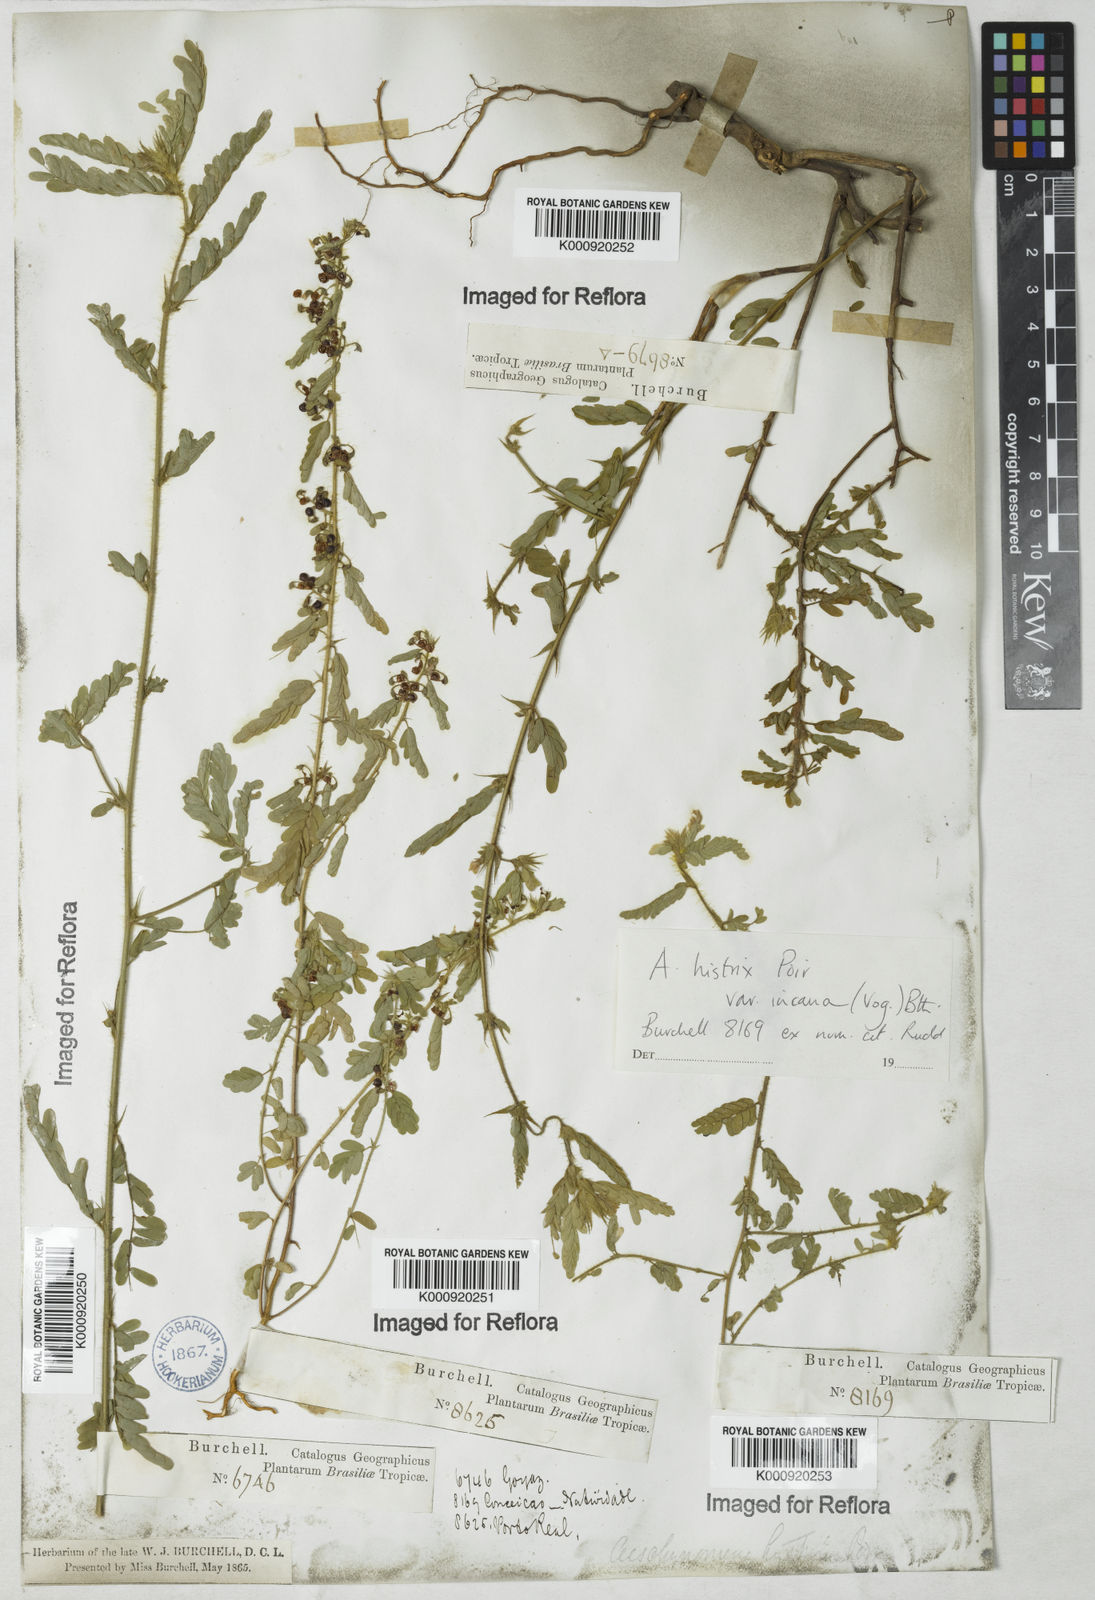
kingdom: Plantae
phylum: Tracheophyta
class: Magnoliopsida
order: Fabales
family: Fabaceae
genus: Ctenodon
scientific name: Ctenodon histrix
